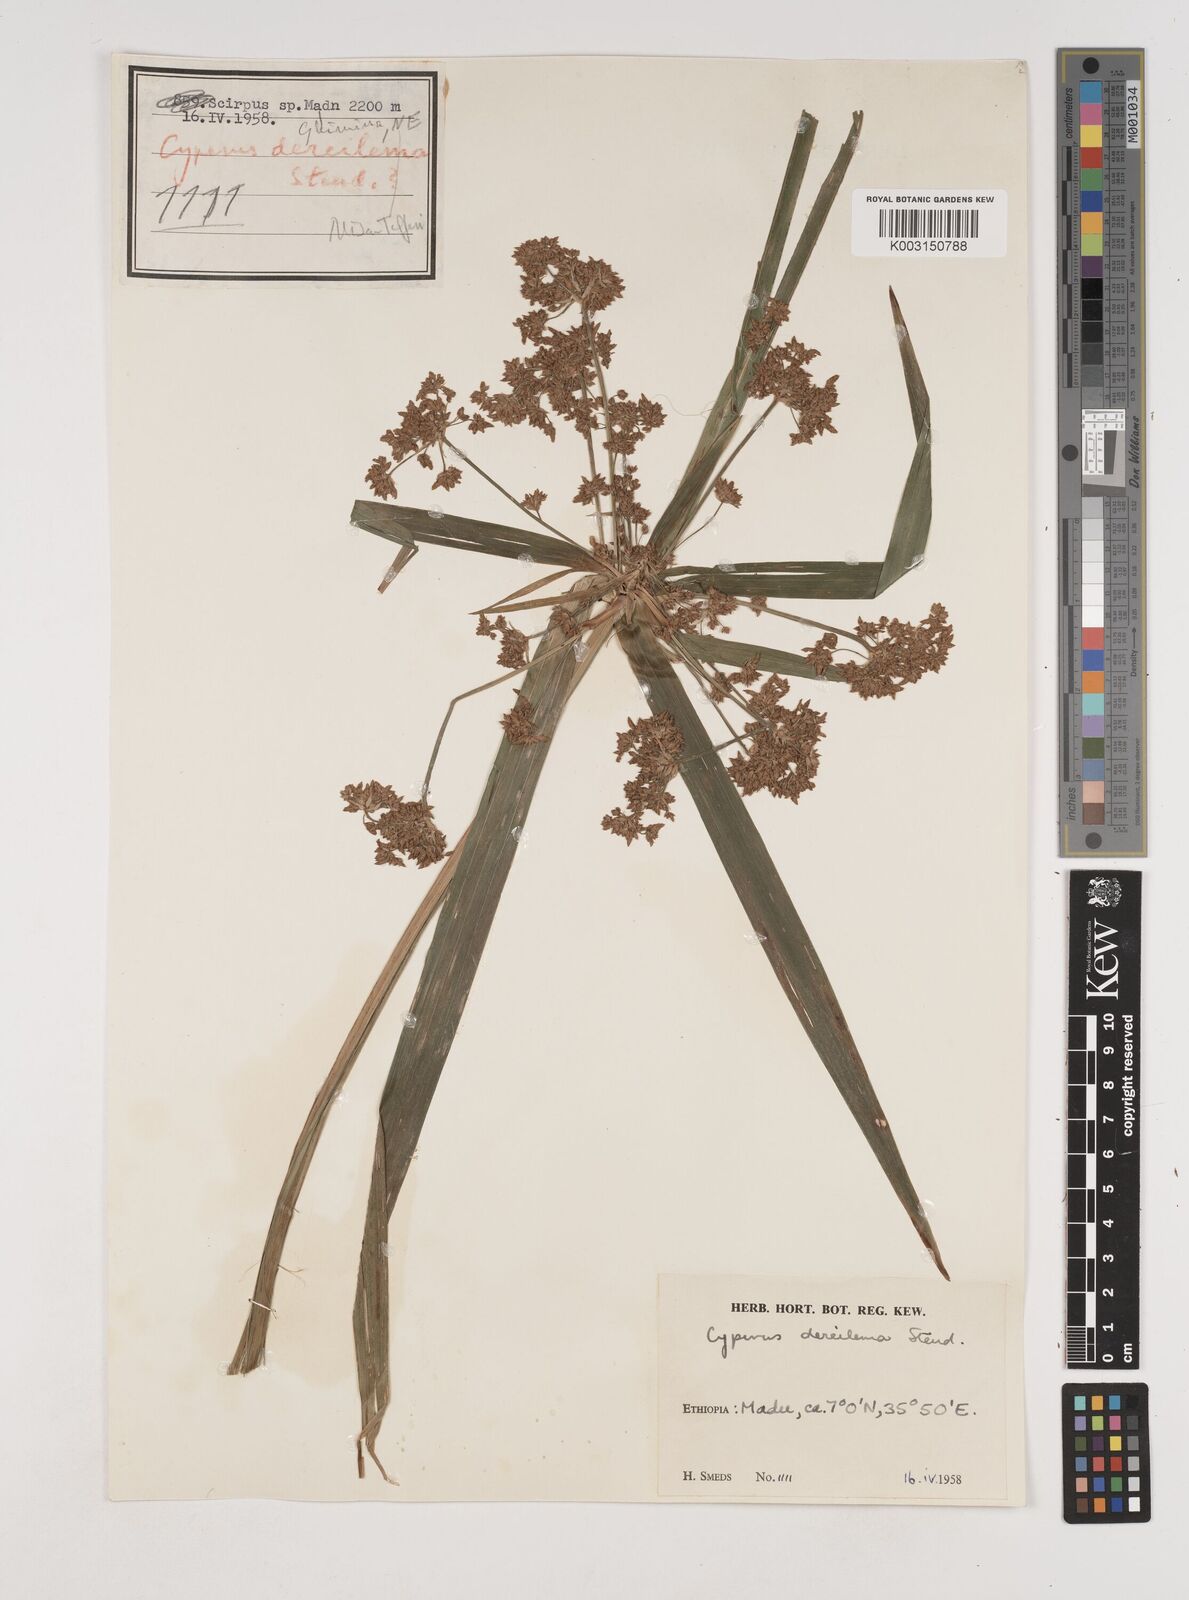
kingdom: Plantae
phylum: Tracheophyta
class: Liliopsida
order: Poales
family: Cyperaceae
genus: Cyperus
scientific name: Cyperus derreilema
